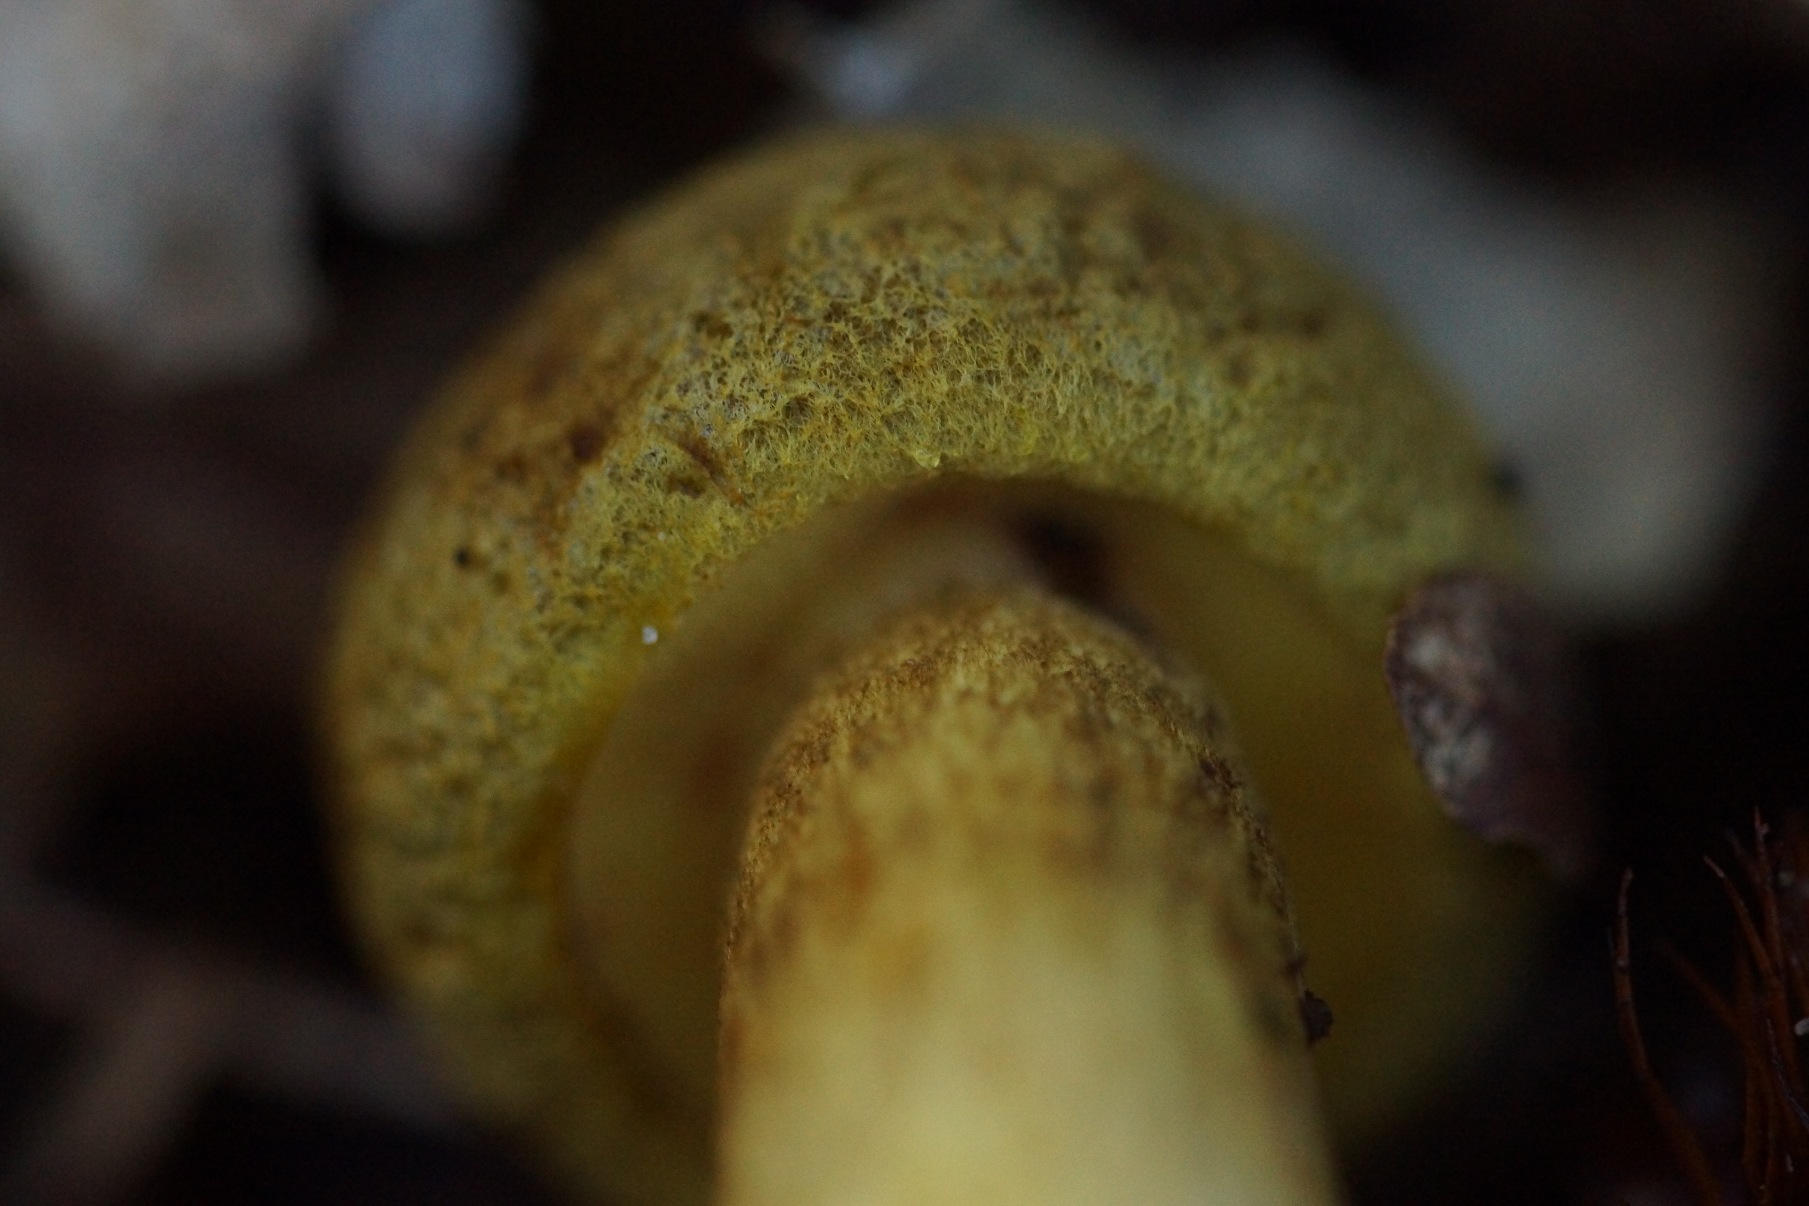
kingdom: Fungi
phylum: Basidiomycota
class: Agaricomycetes
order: Boletales
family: Boletaceae
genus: Pseudoboletus
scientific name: Pseudoboletus parasiticus
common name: Snyltende rørhat
